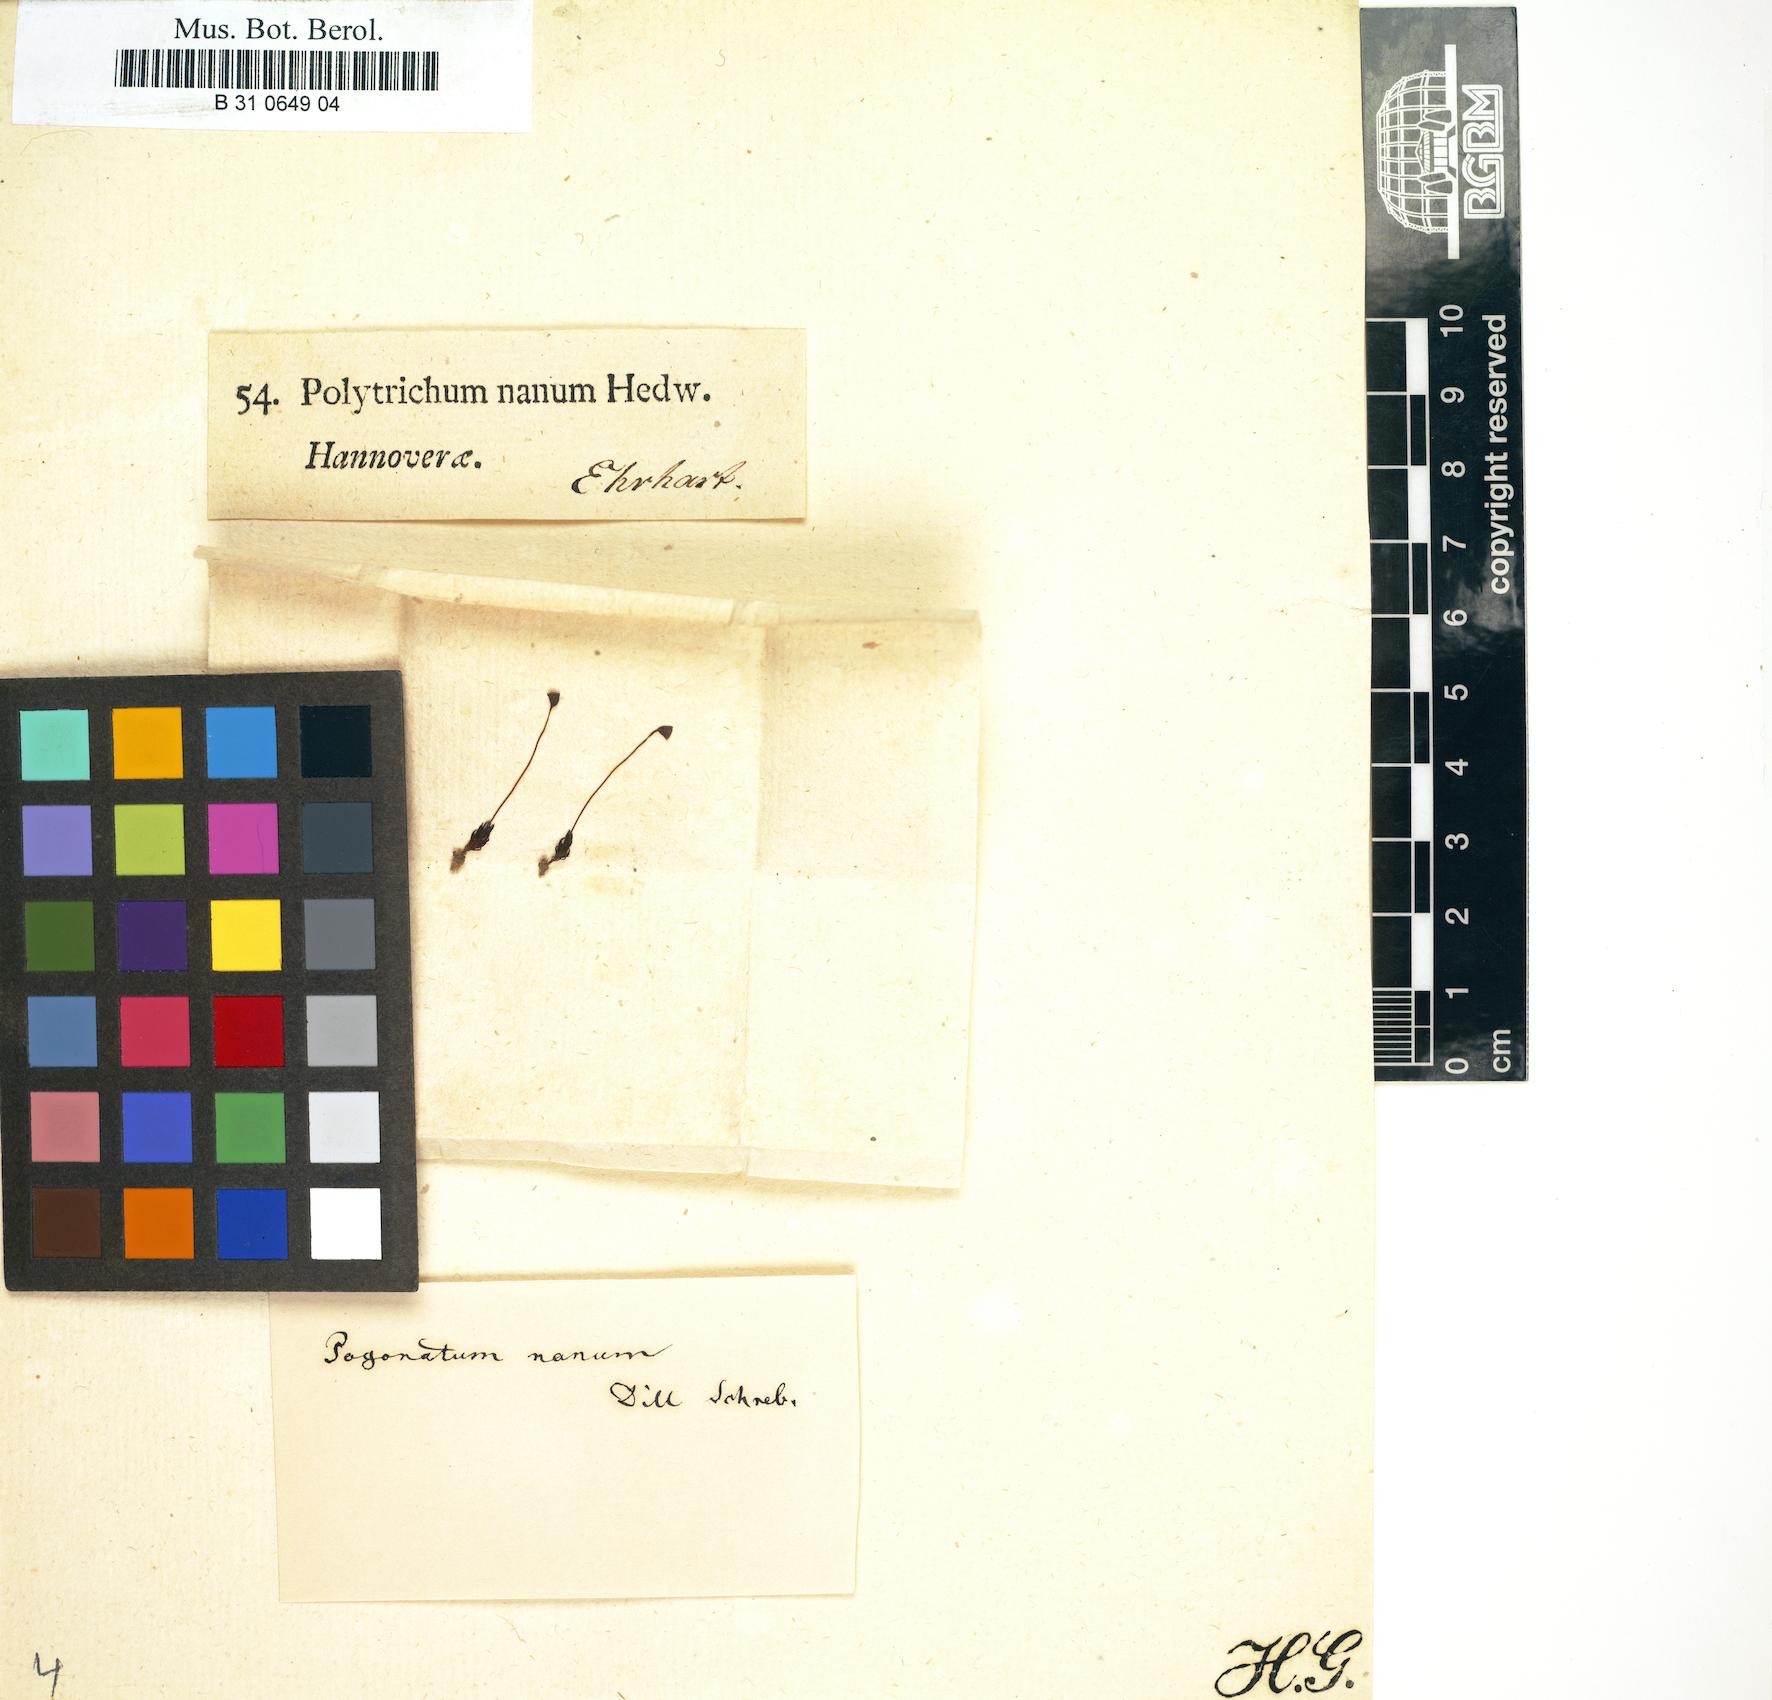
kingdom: Plantae
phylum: Bryophyta
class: Polytrichopsida
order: Polytrichales
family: Polytrichaceae
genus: Pogonatum
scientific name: Pogonatum minus
